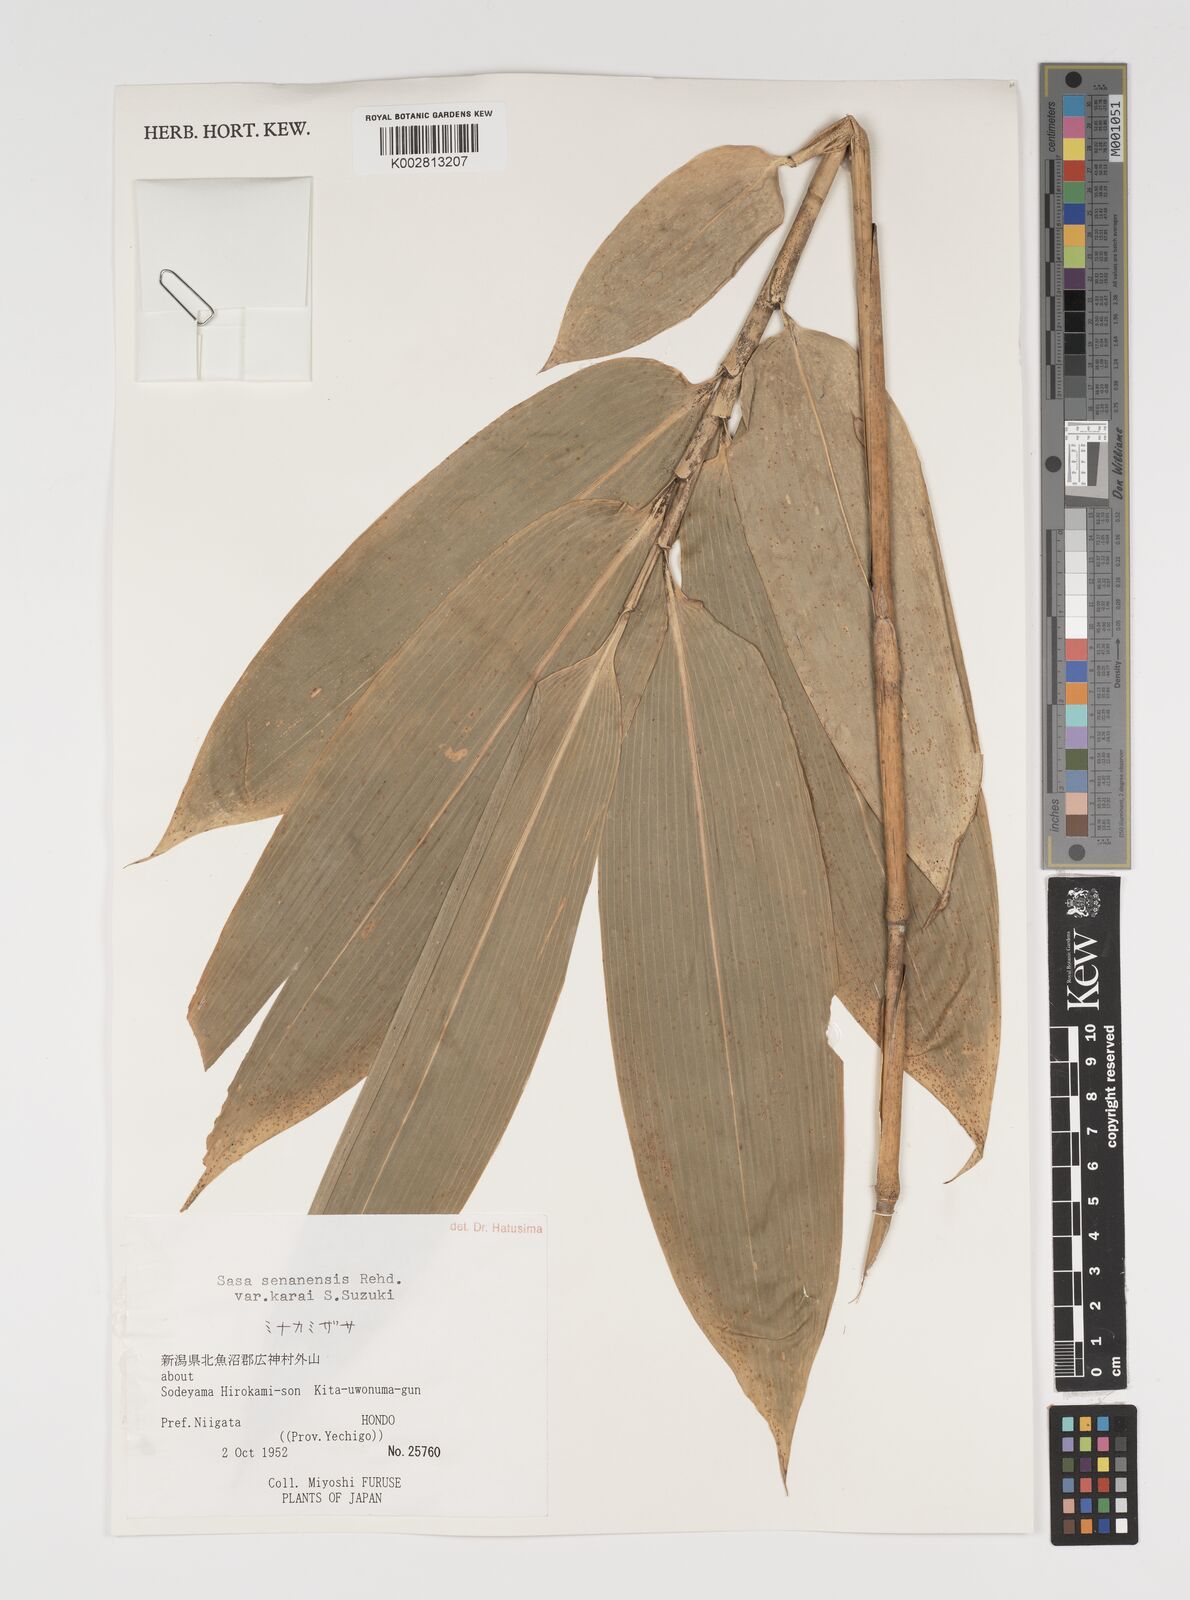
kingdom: Plantae
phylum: Tracheophyta
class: Liliopsida
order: Poales
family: Poaceae
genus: Sasa
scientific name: Sasa senanensis
